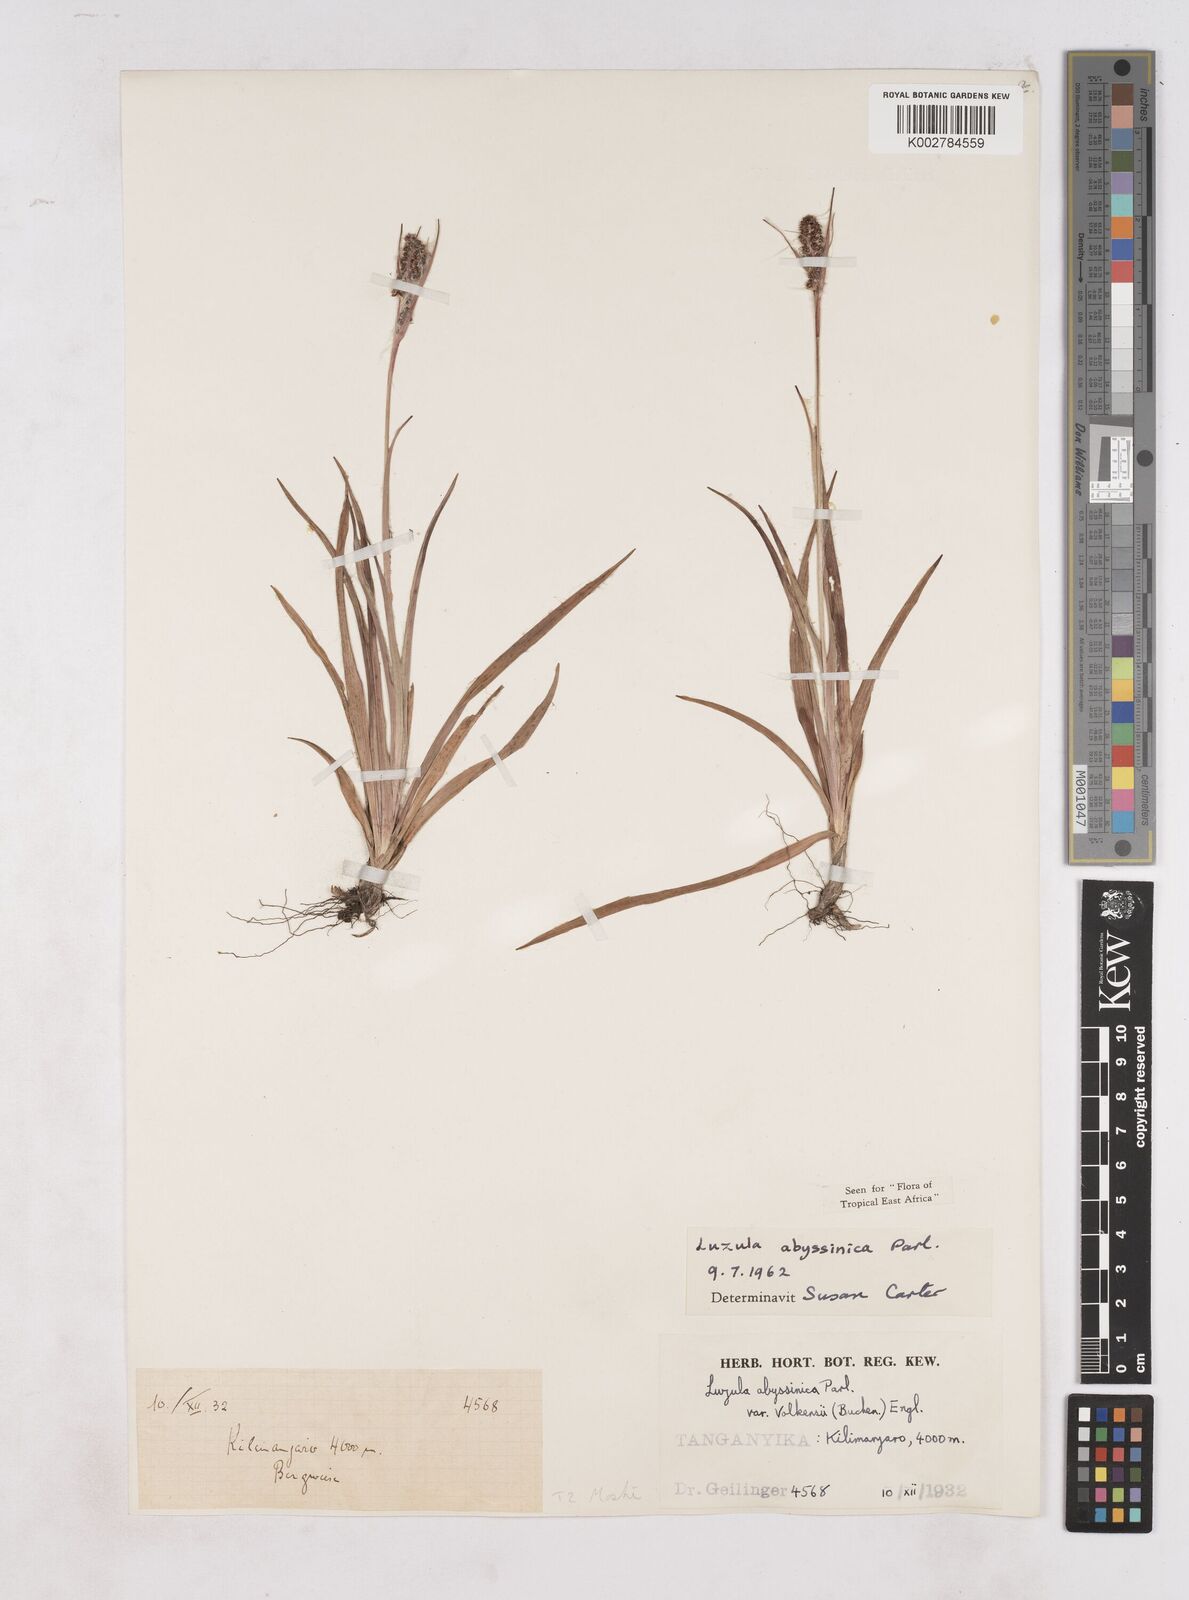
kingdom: Plantae
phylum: Tracheophyta
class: Liliopsida
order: Poales
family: Juncaceae
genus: Luzula
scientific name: Luzula abyssinica
